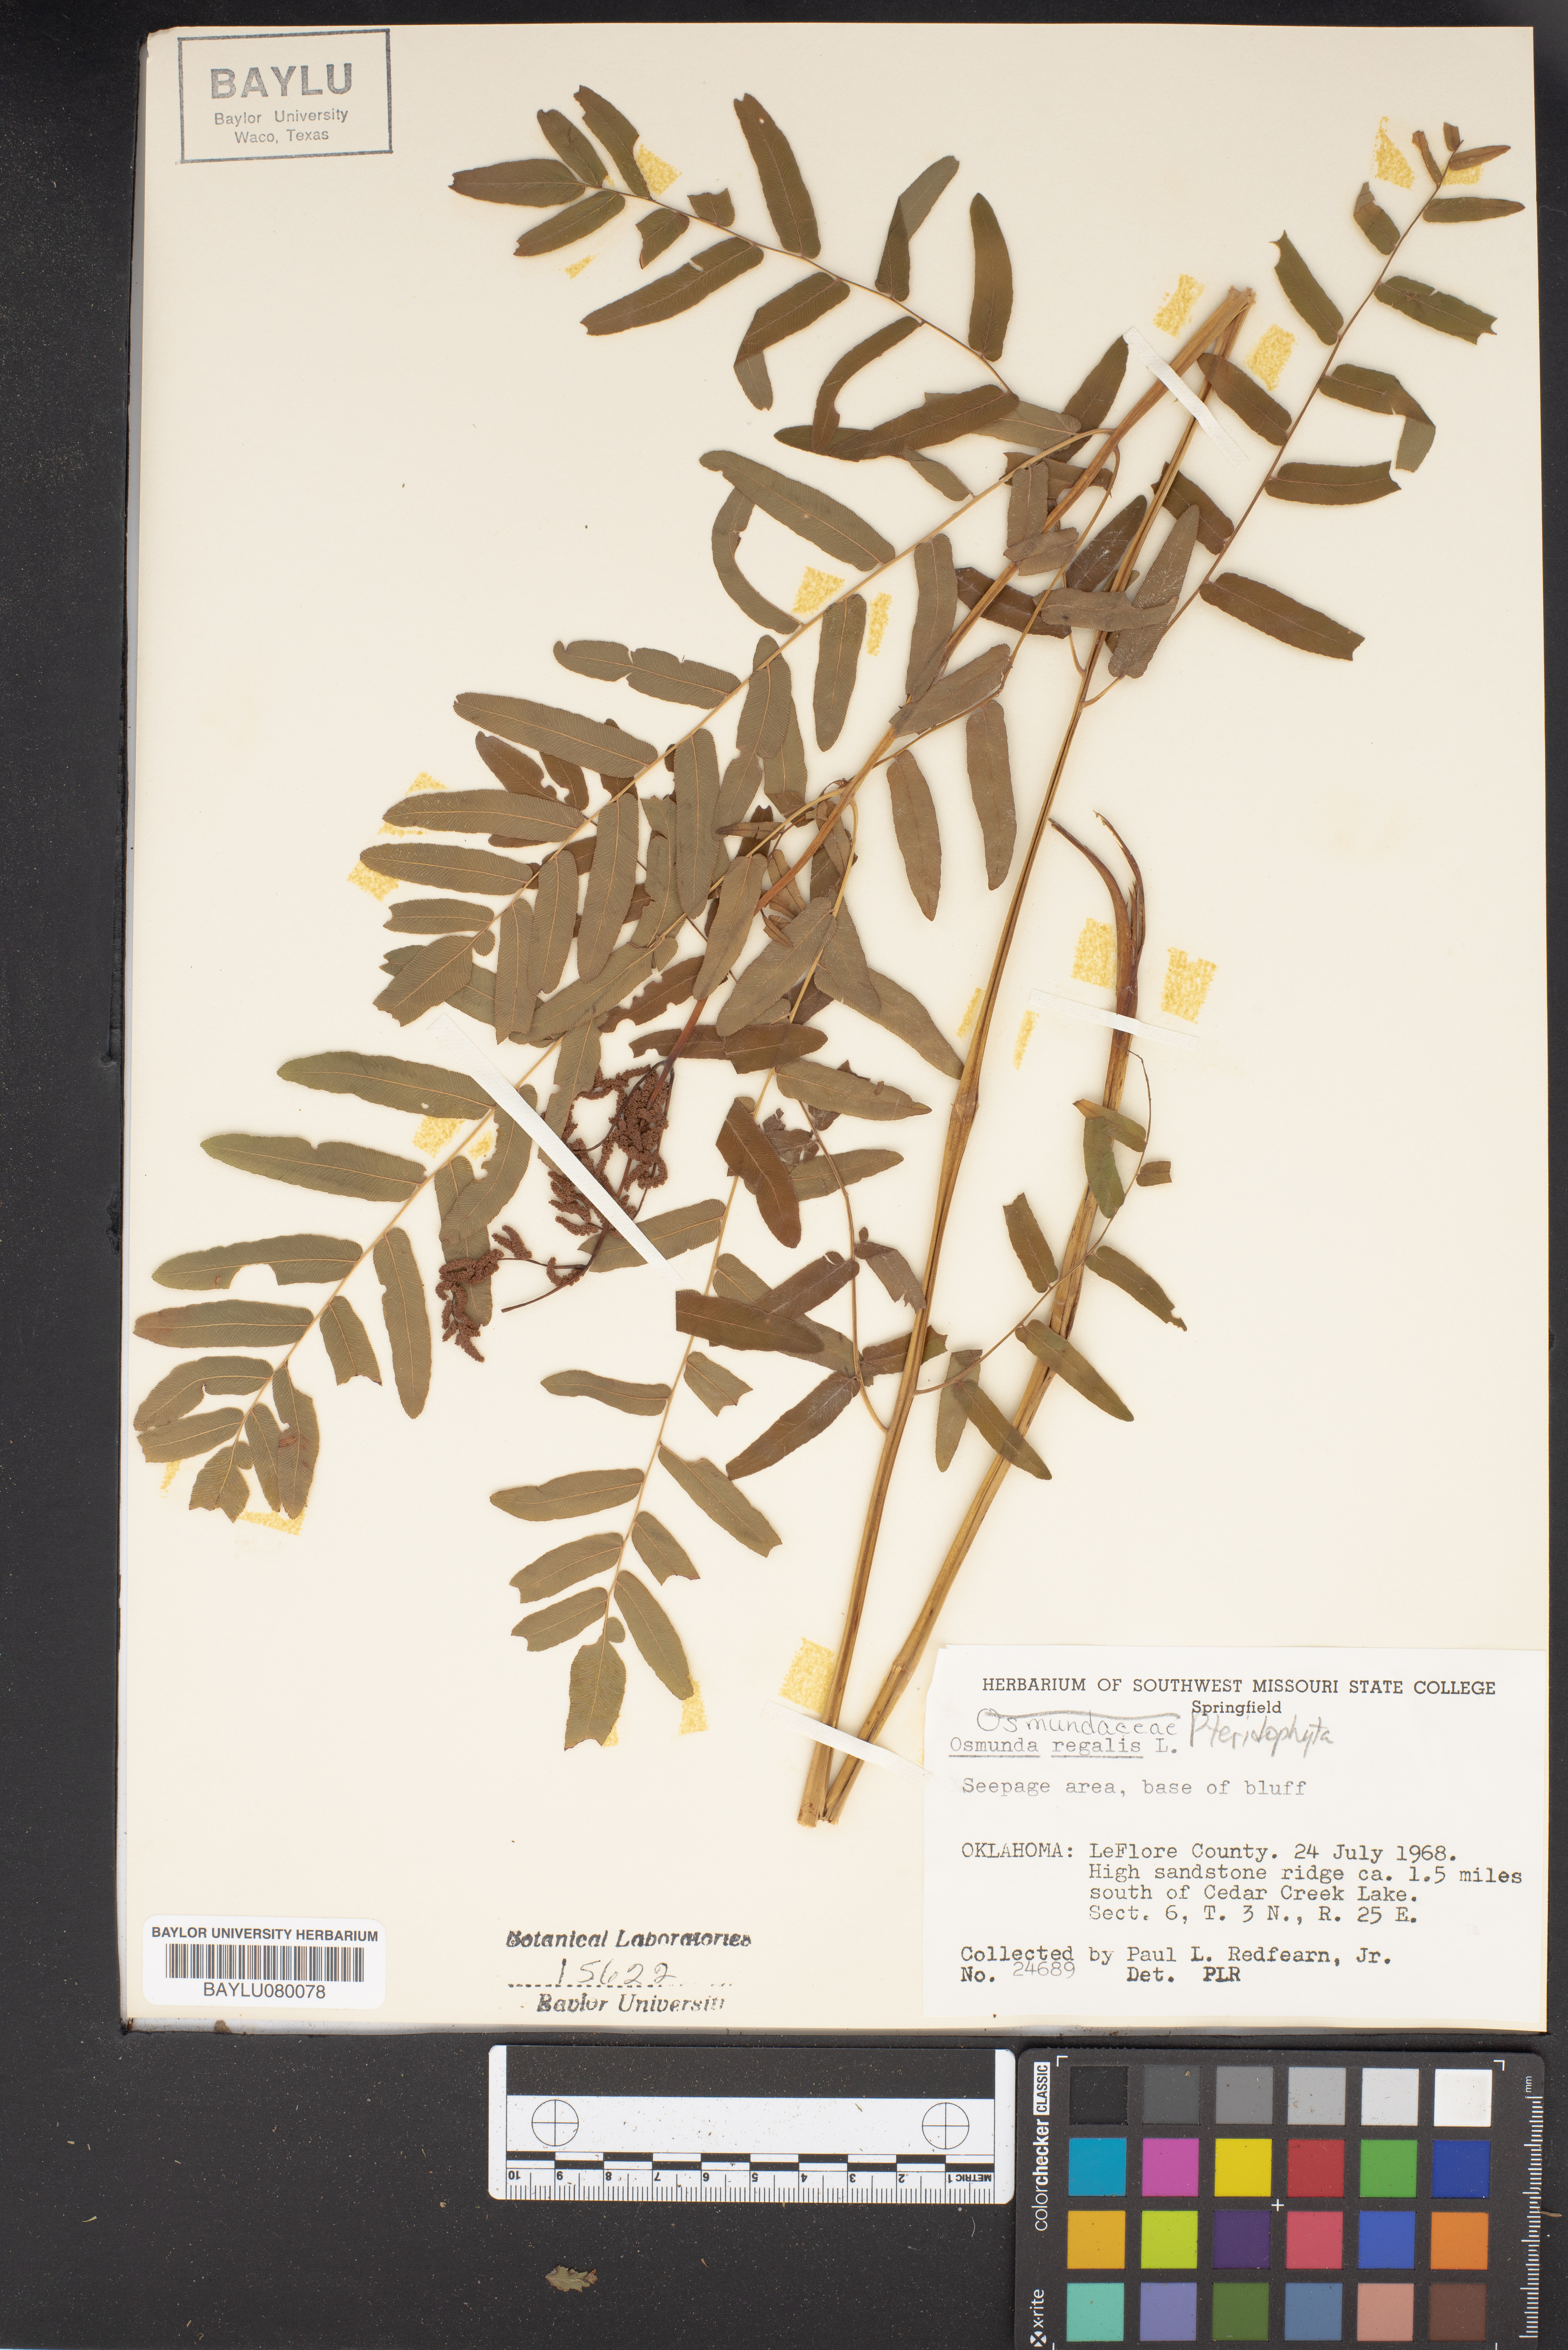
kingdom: Plantae
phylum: Tracheophyta
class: Polypodiopsida
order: Osmundales
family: Osmundaceae
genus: Osmunda
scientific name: Osmunda regalis
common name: Royal fern
